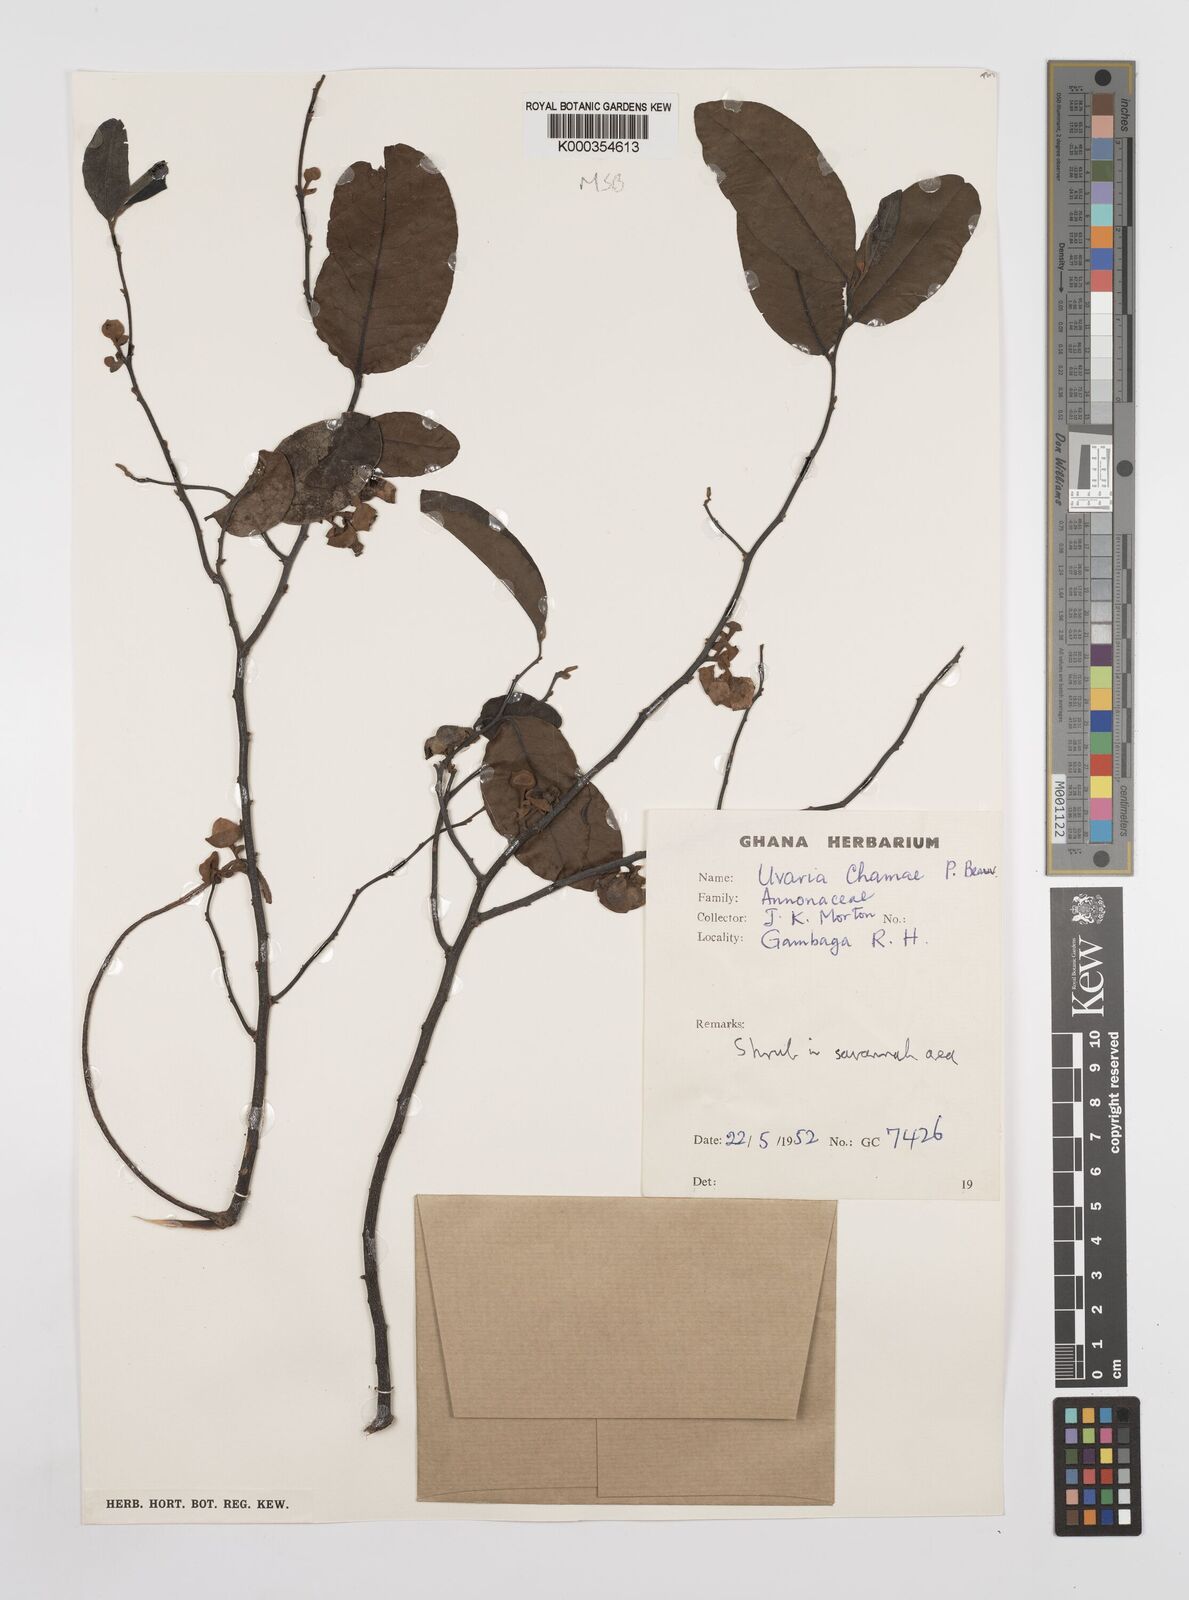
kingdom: Plantae
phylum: Tracheophyta
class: Magnoliopsida
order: Magnoliales
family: Annonaceae
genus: Uvaria
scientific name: Uvaria chamae
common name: Finger-root
